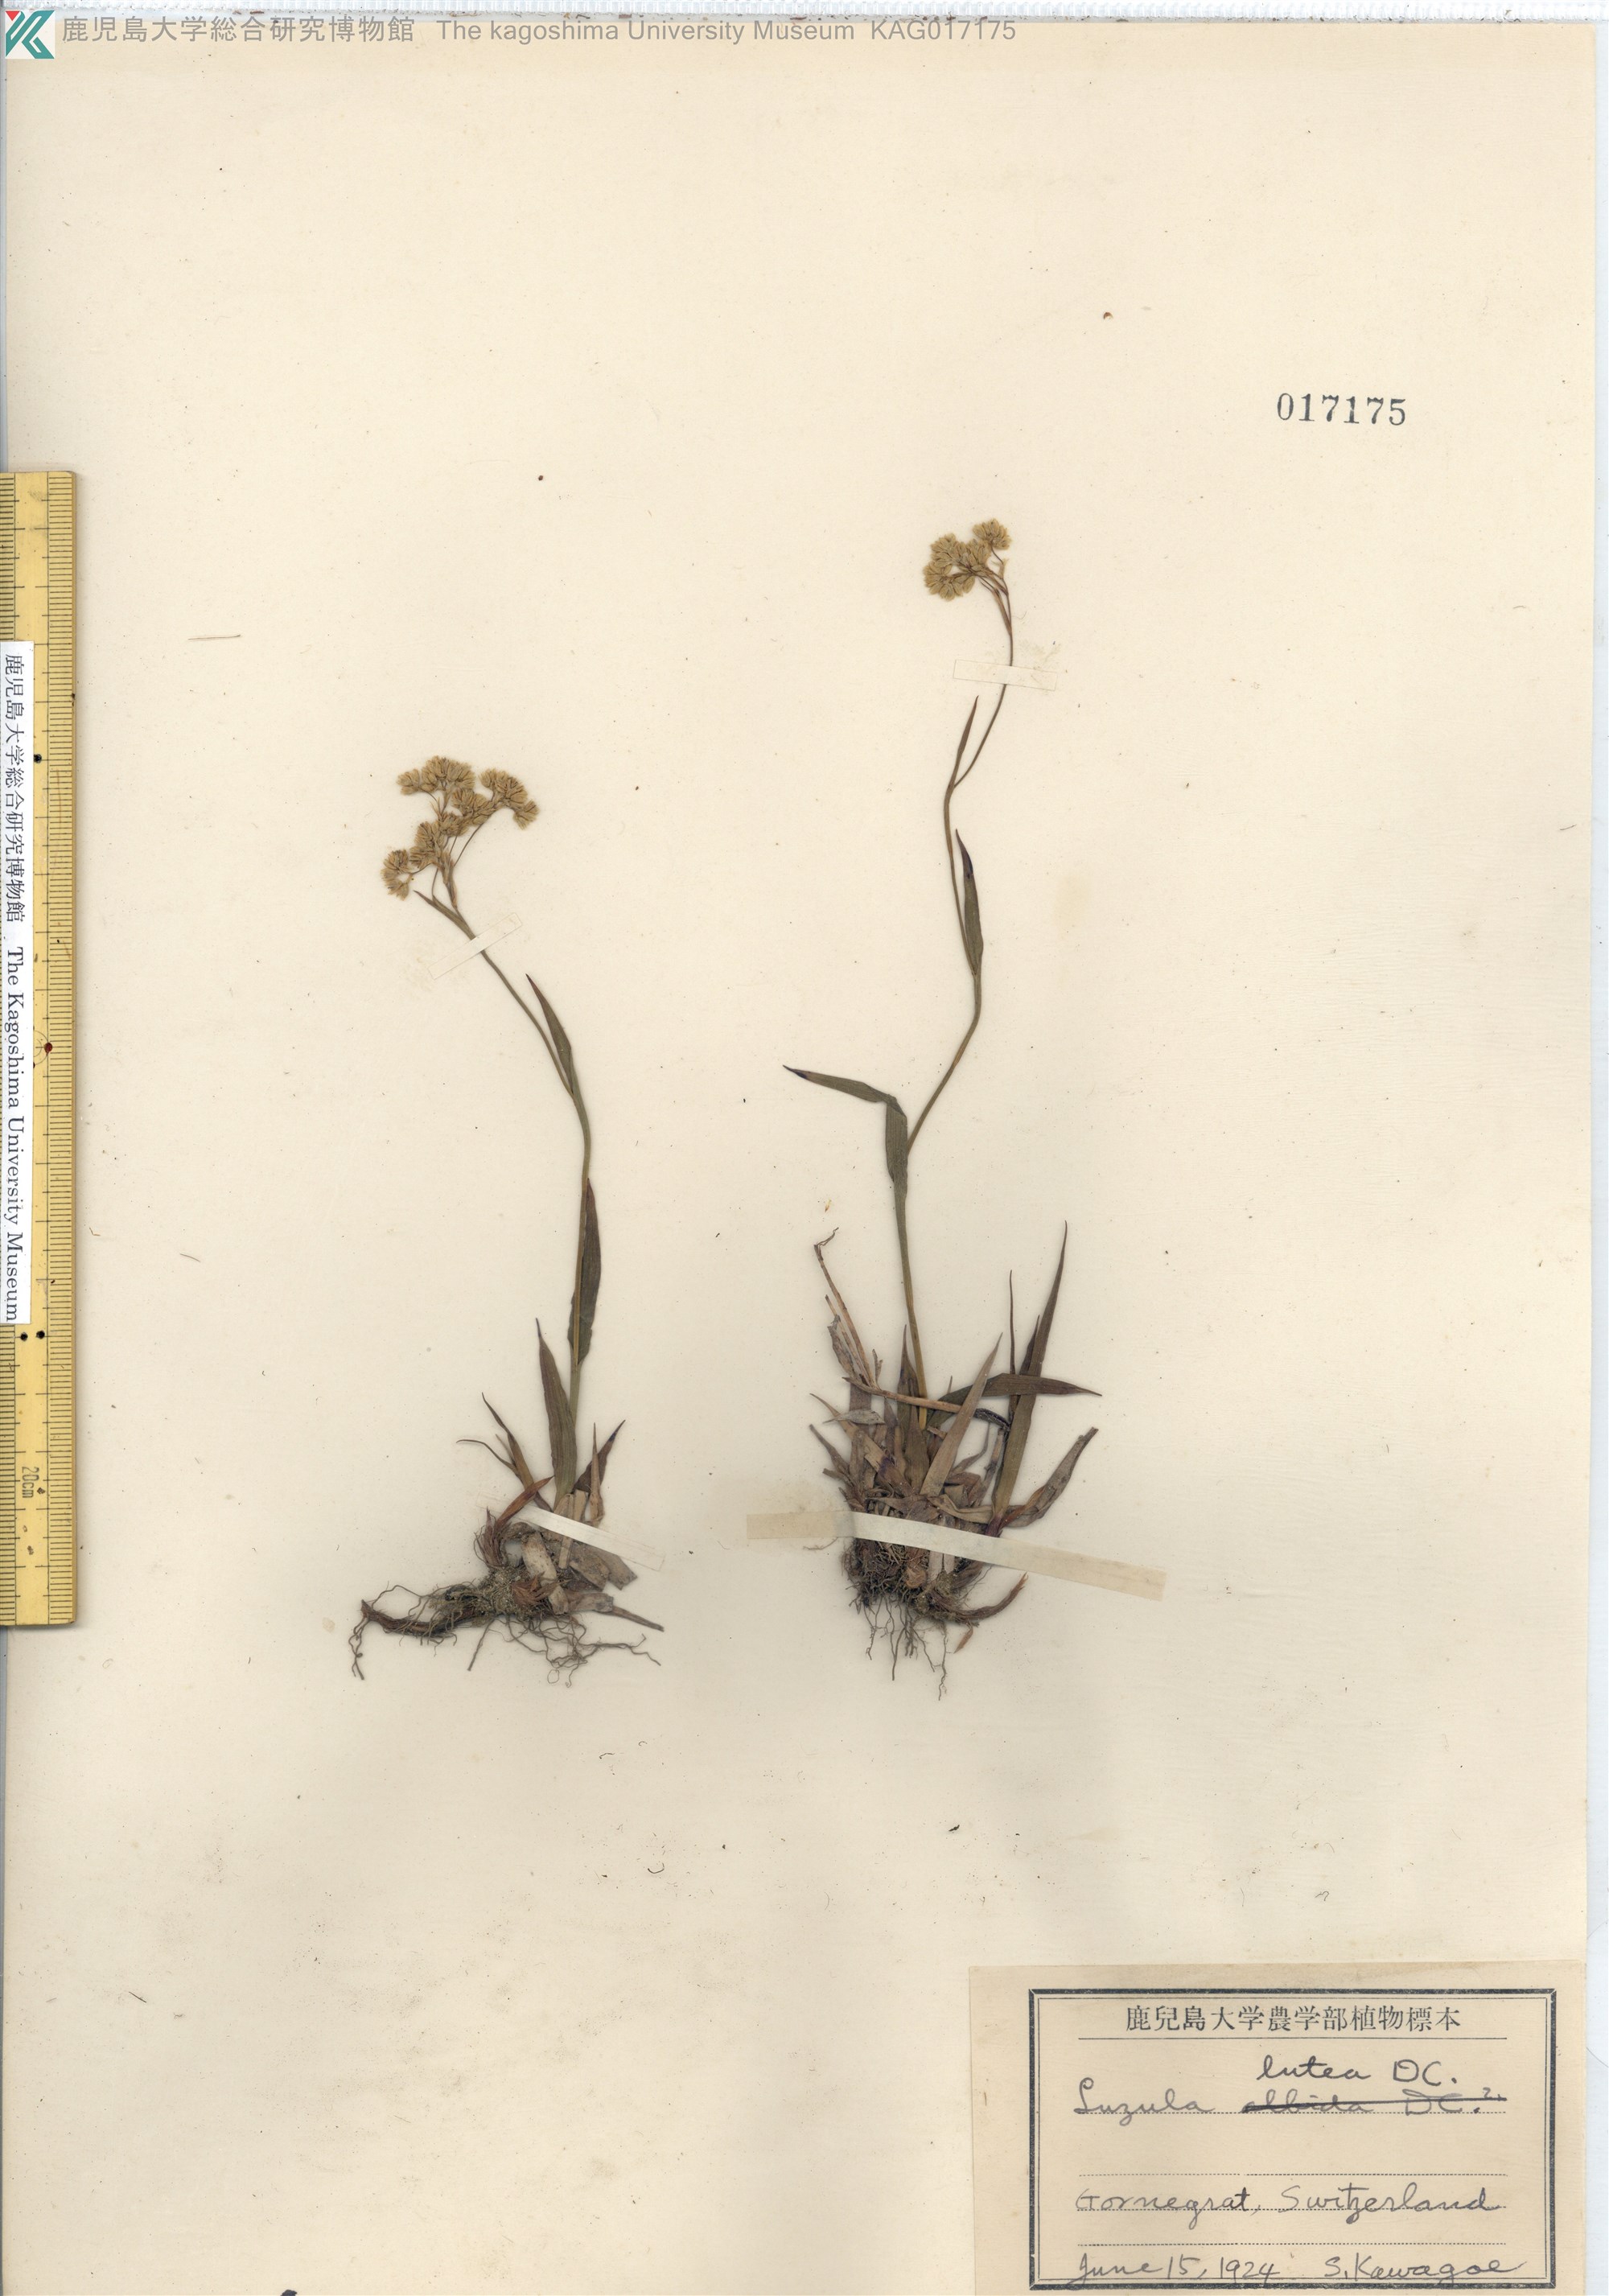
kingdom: Plantae
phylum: Tracheophyta
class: Liliopsida
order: Poales
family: Juncaceae
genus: Luzula
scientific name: Luzula lutea
